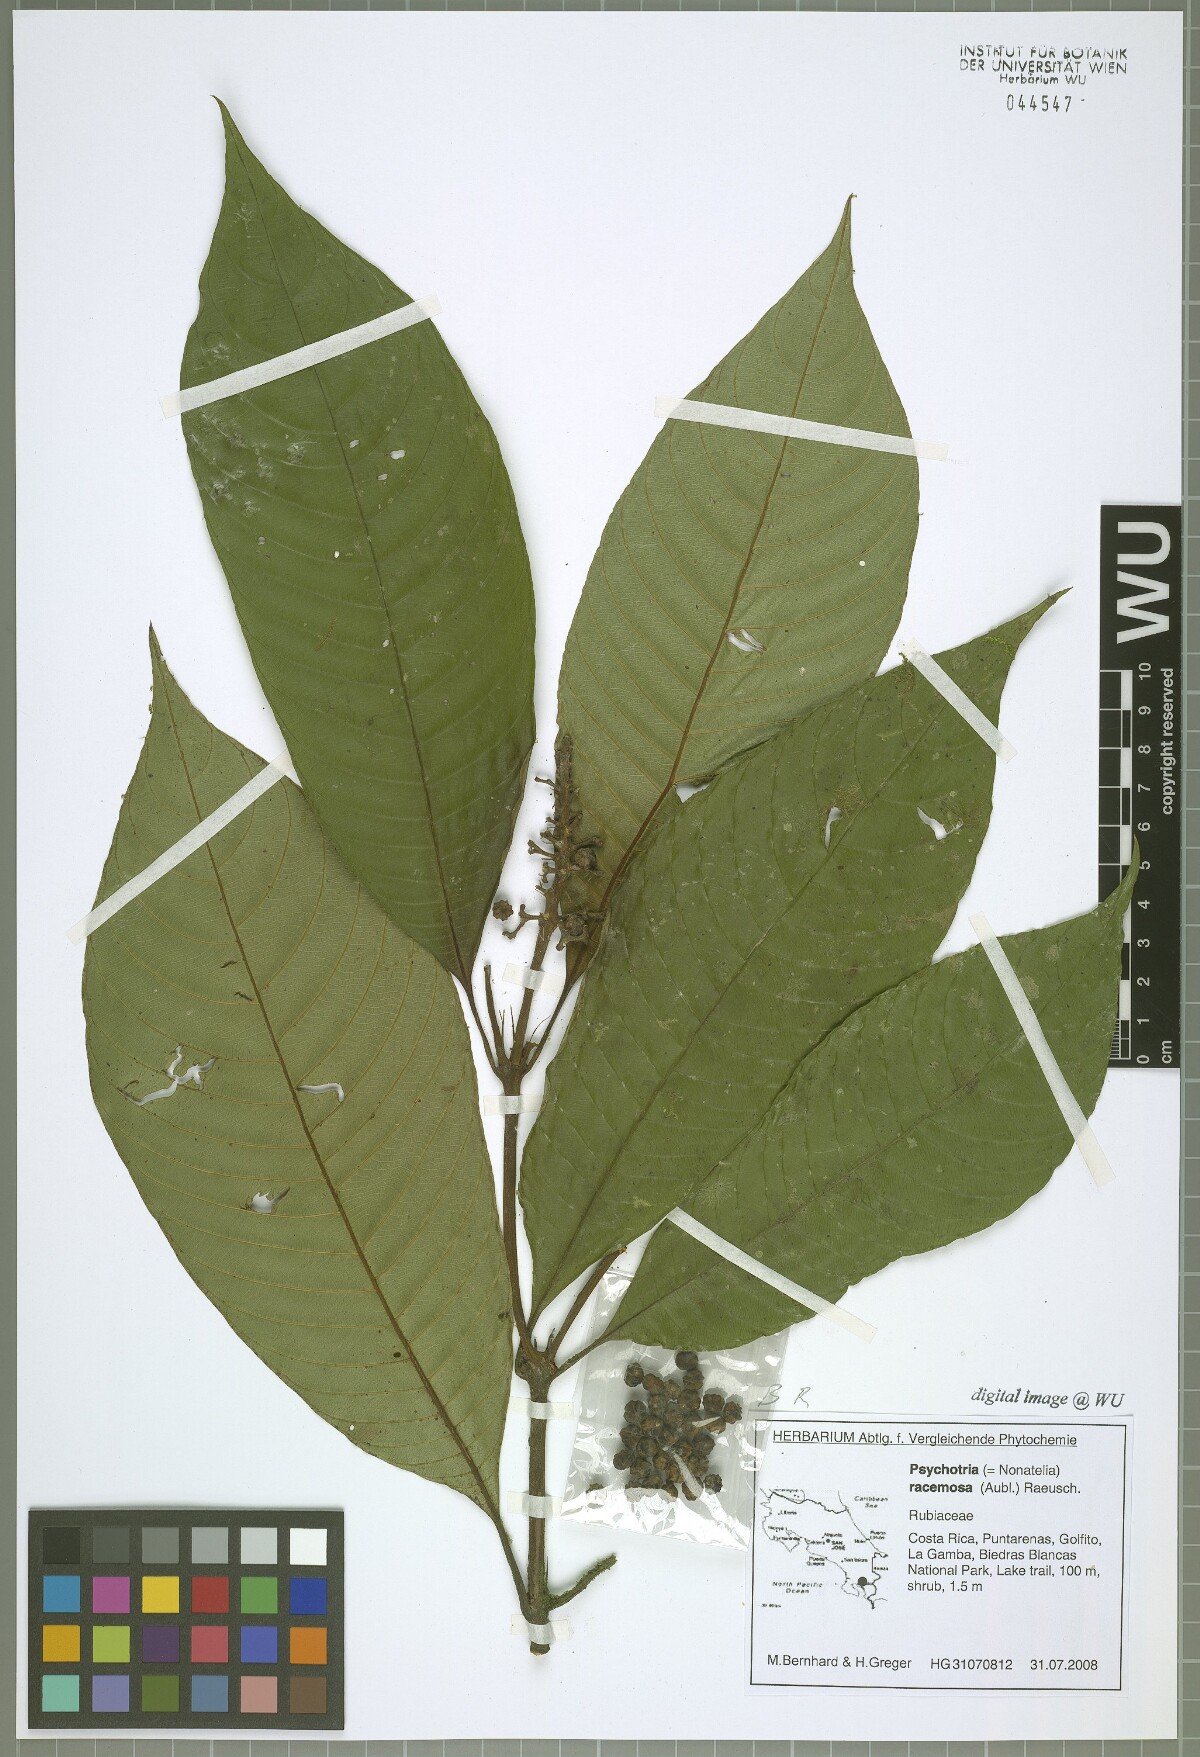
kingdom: Plantae
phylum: Tracheophyta
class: Magnoliopsida
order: Gentianales
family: Rubiaceae
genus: Palicourea
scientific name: Palicourea tsakiana
